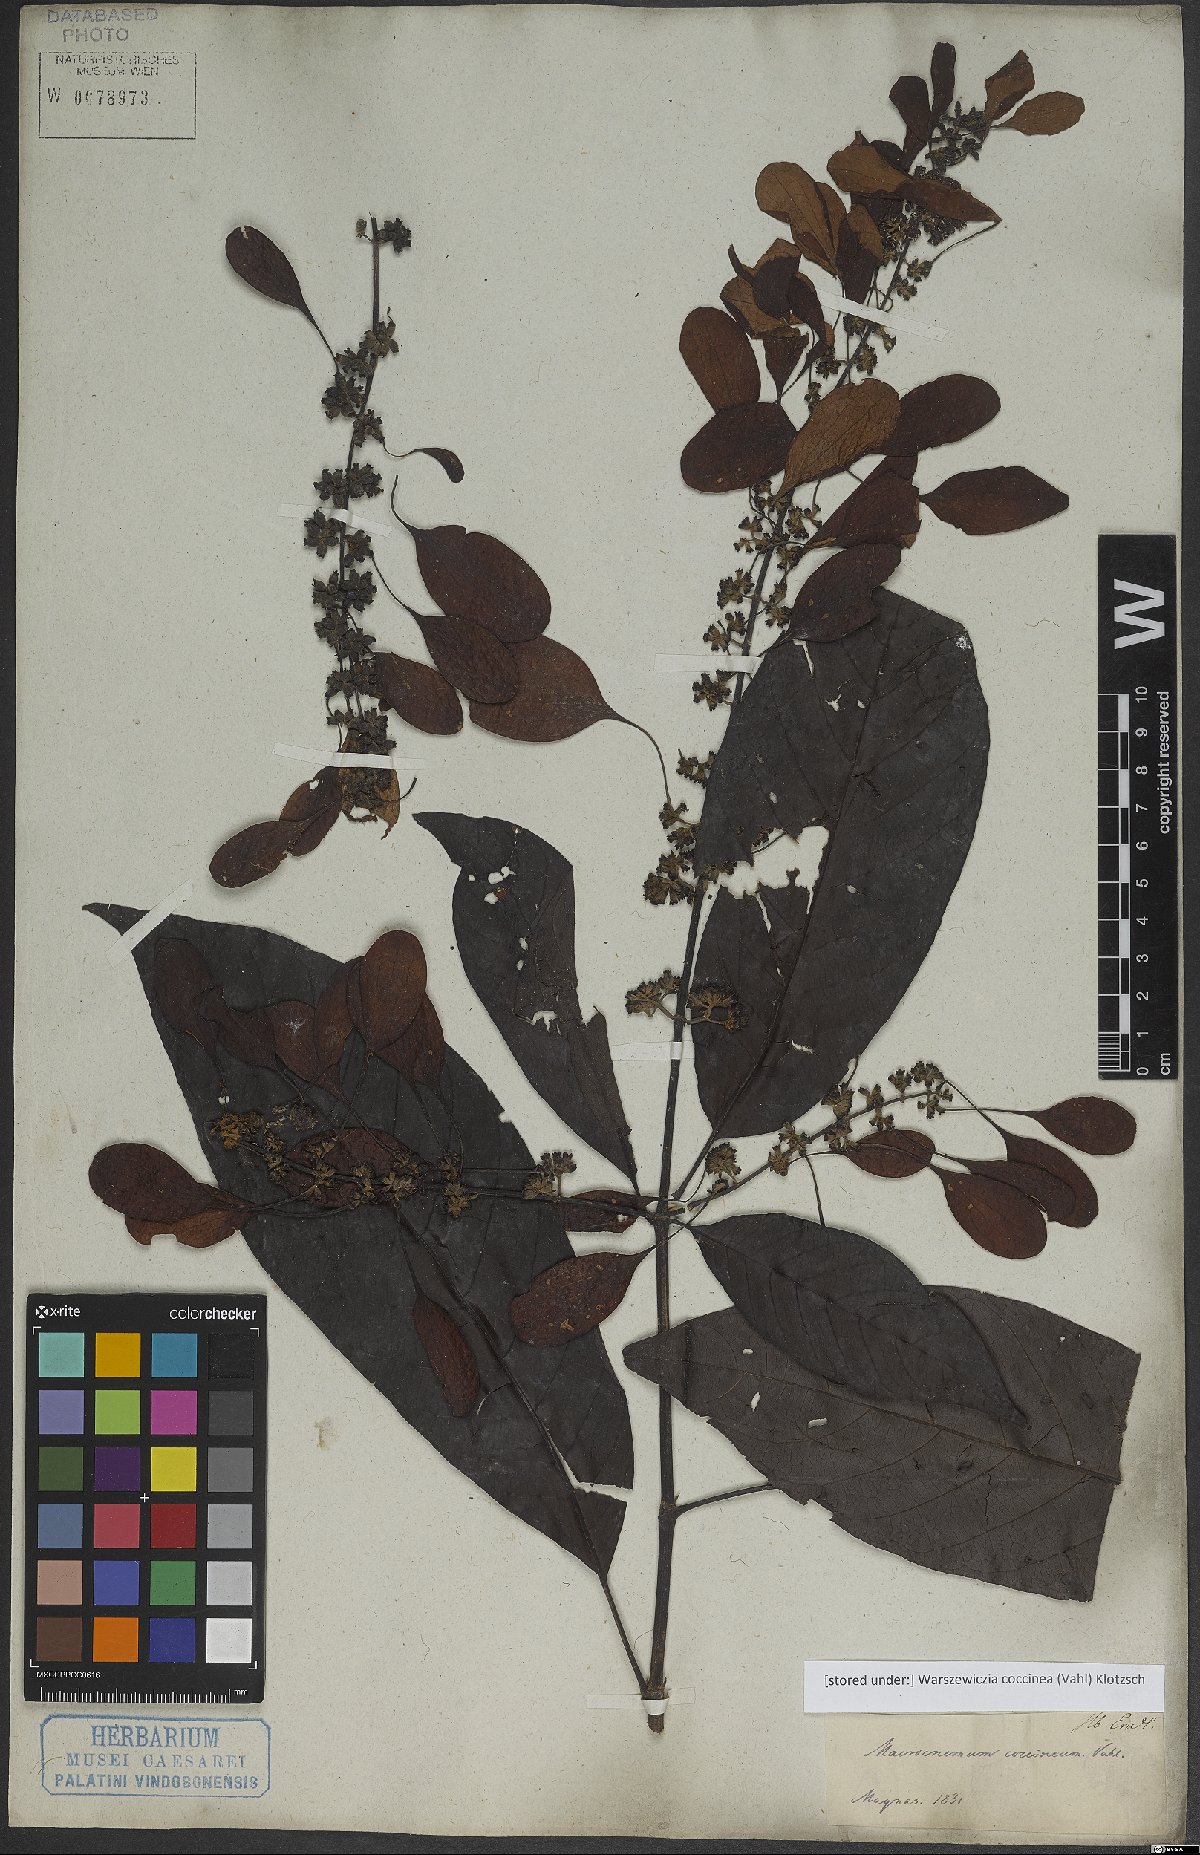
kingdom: Plantae
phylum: Tracheophyta
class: Magnoliopsida
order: Gentianales
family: Rubiaceae
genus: Warszewiczia
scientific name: Warszewiczia coccinea
